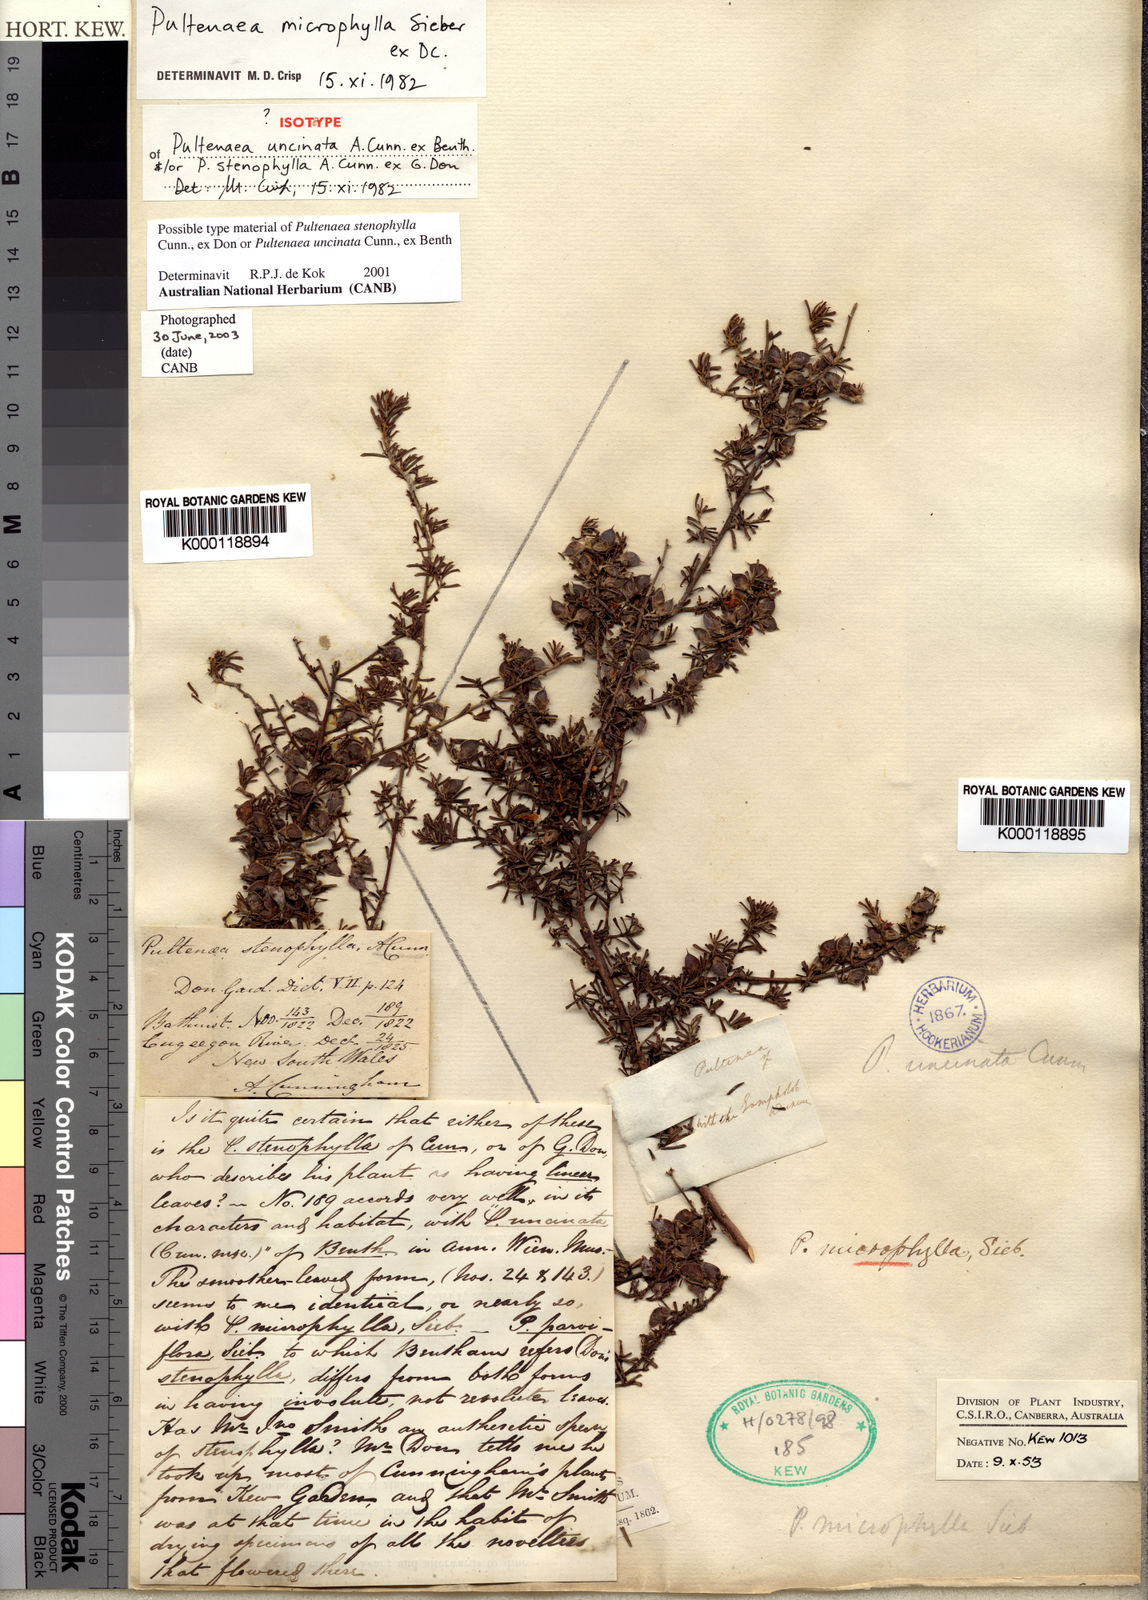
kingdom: Plantae
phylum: Tracheophyta
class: Magnoliopsida
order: Fabales
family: Fabaceae
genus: Pultenaea
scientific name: Pultenaea microphylla
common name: Spreading bush-pea
